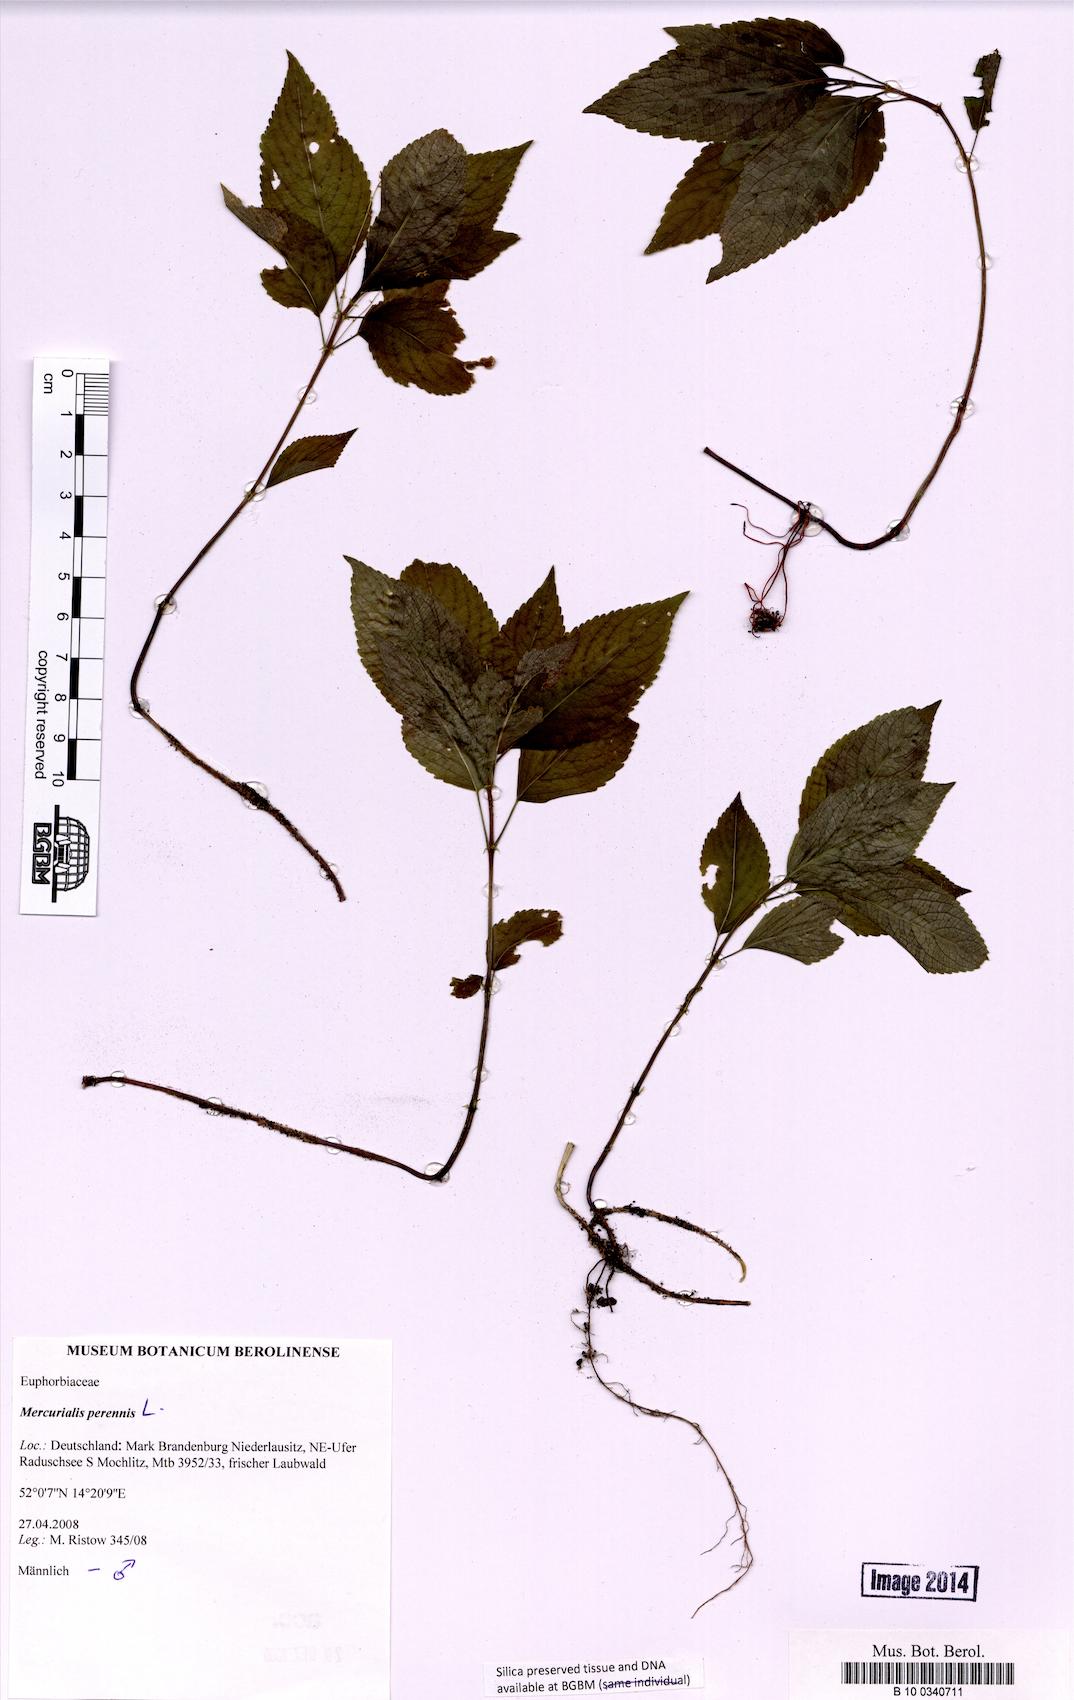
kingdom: Plantae
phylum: Tracheophyta
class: Magnoliopsida
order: Malpighiales
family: Euphorbiaceae
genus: Mercurialis
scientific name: Mercurialis perennis
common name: Dog mercury
